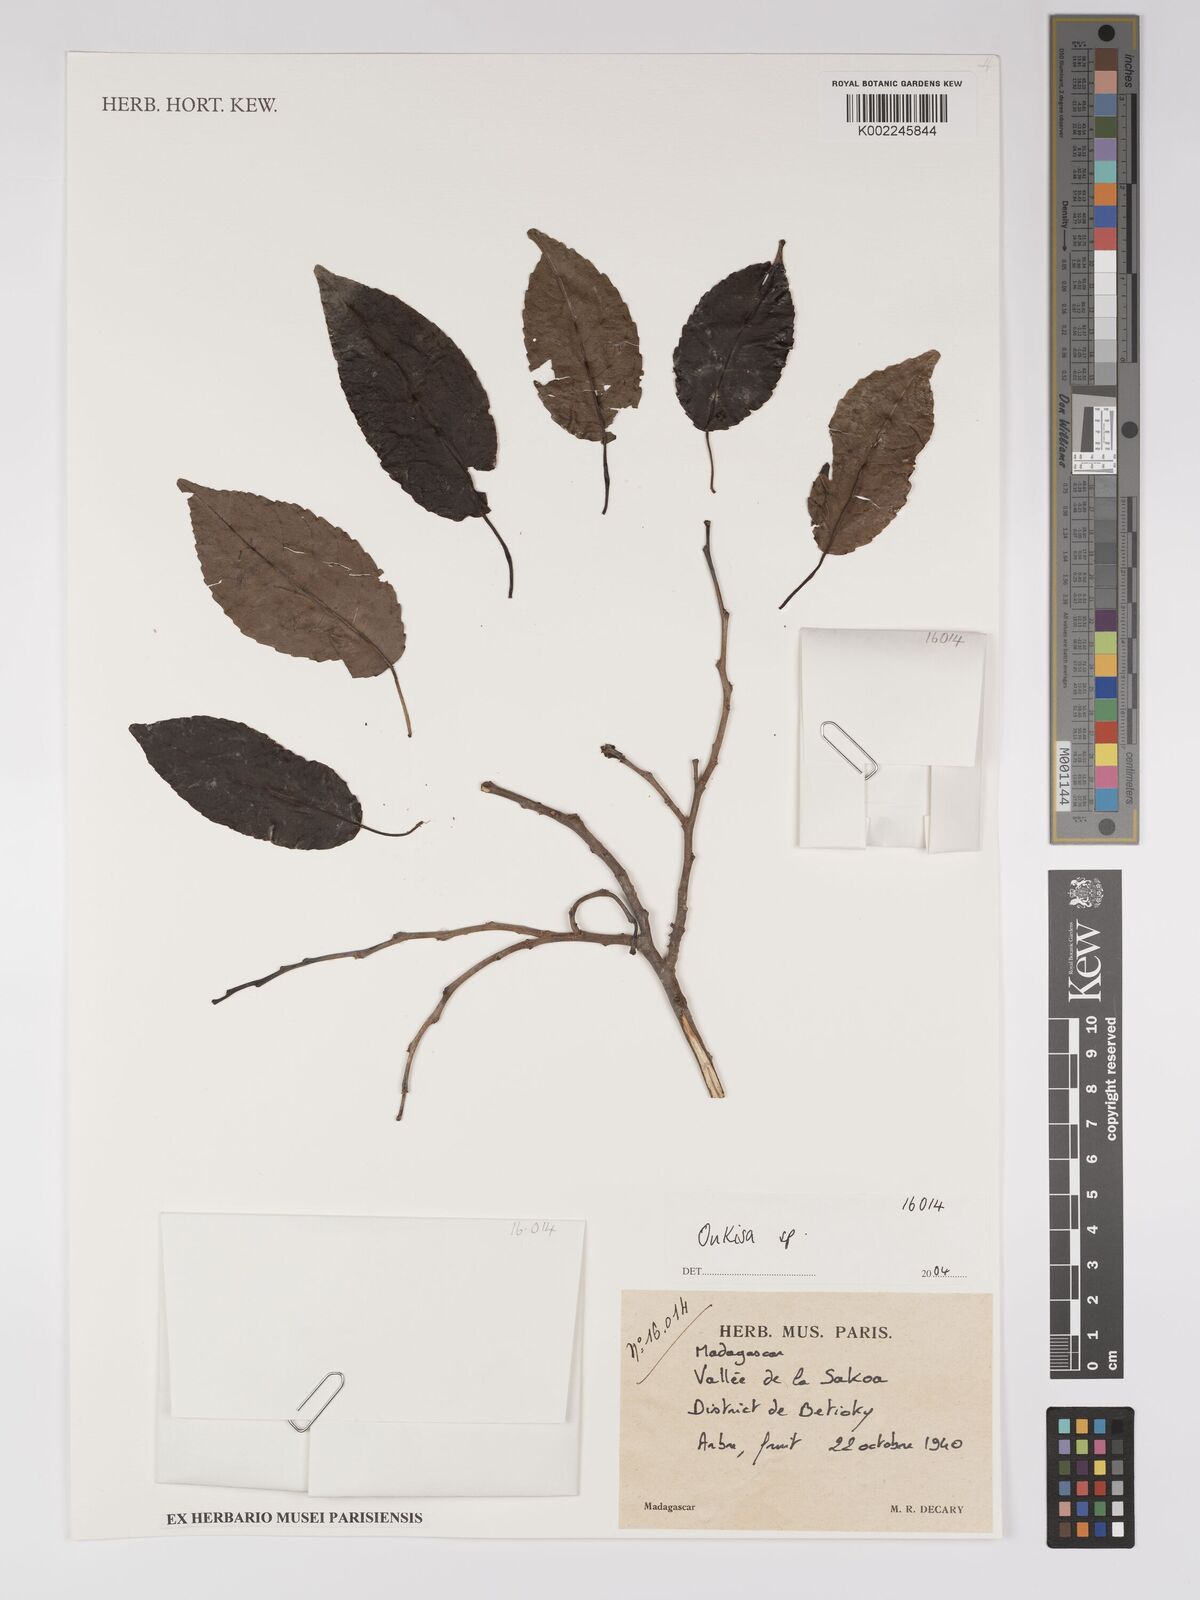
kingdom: Plantae
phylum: Tracheophyta
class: Magnoliopsida
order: Malpighiales
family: Euphorbiaceae
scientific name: Euphorbiaceae
